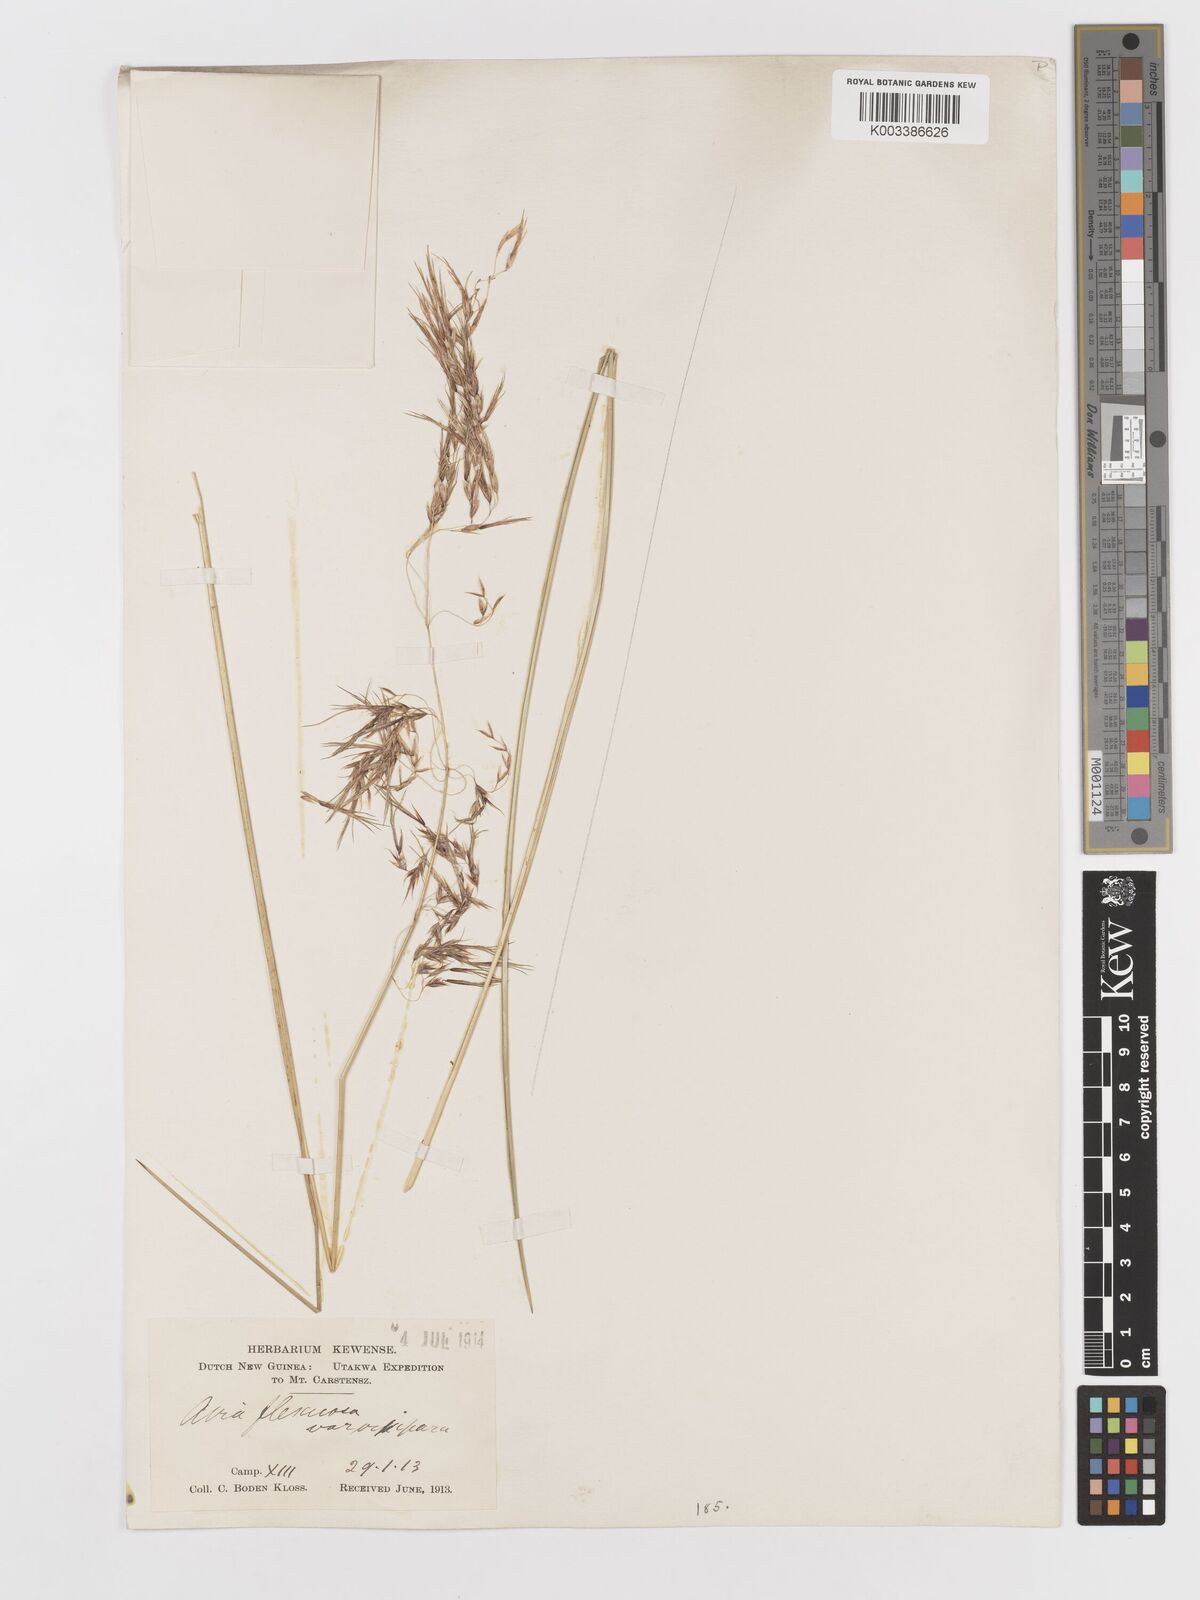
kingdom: Plantae
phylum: Tracheophyta
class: Liliopsida
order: Poales
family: Poaceae
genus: Deschampsia
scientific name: Deschampsia klossii
